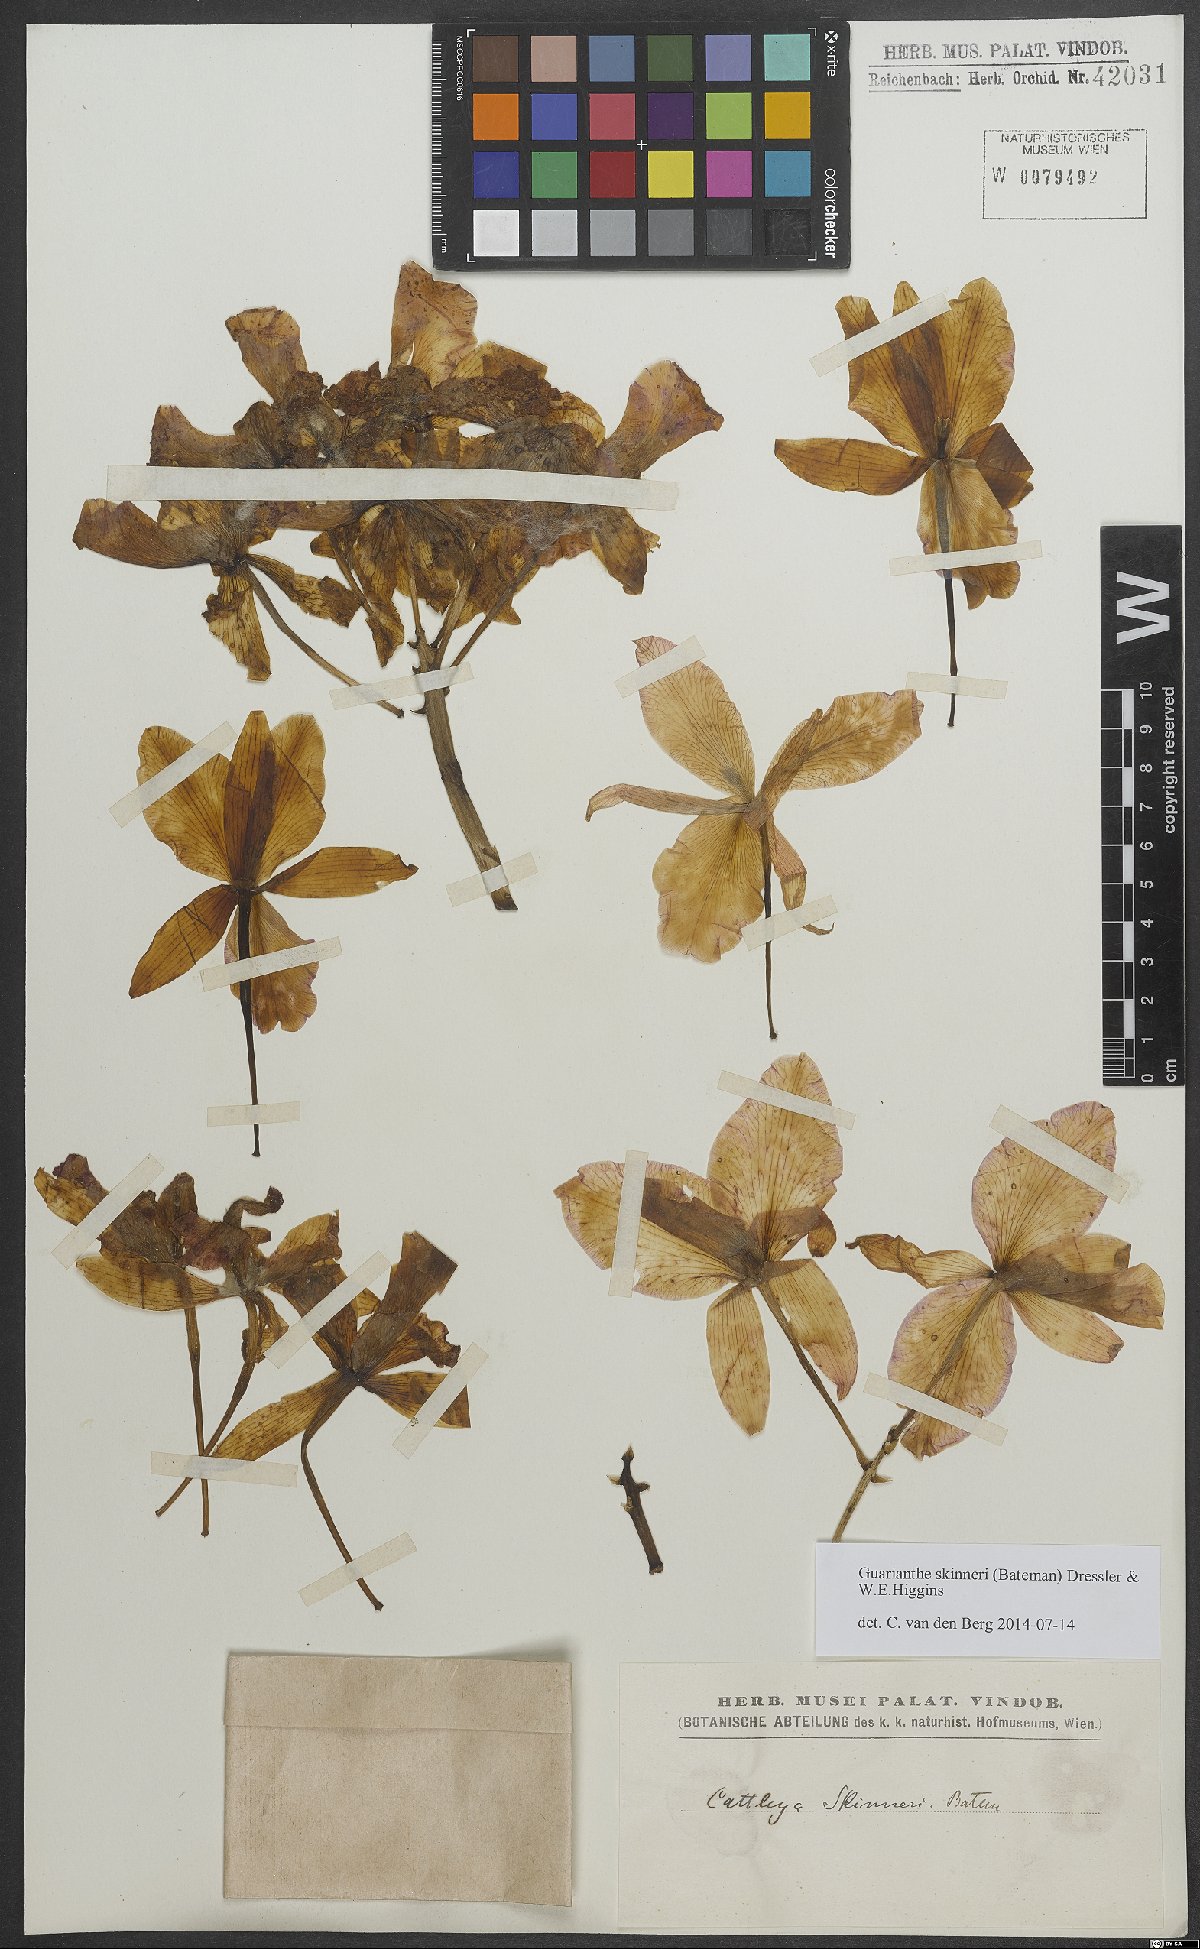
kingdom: Plantae
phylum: Tracheophyta
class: Liliopsida
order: Asparagales
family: Orchidaceae
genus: Guarianthe
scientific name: Guarianthe skinneri
